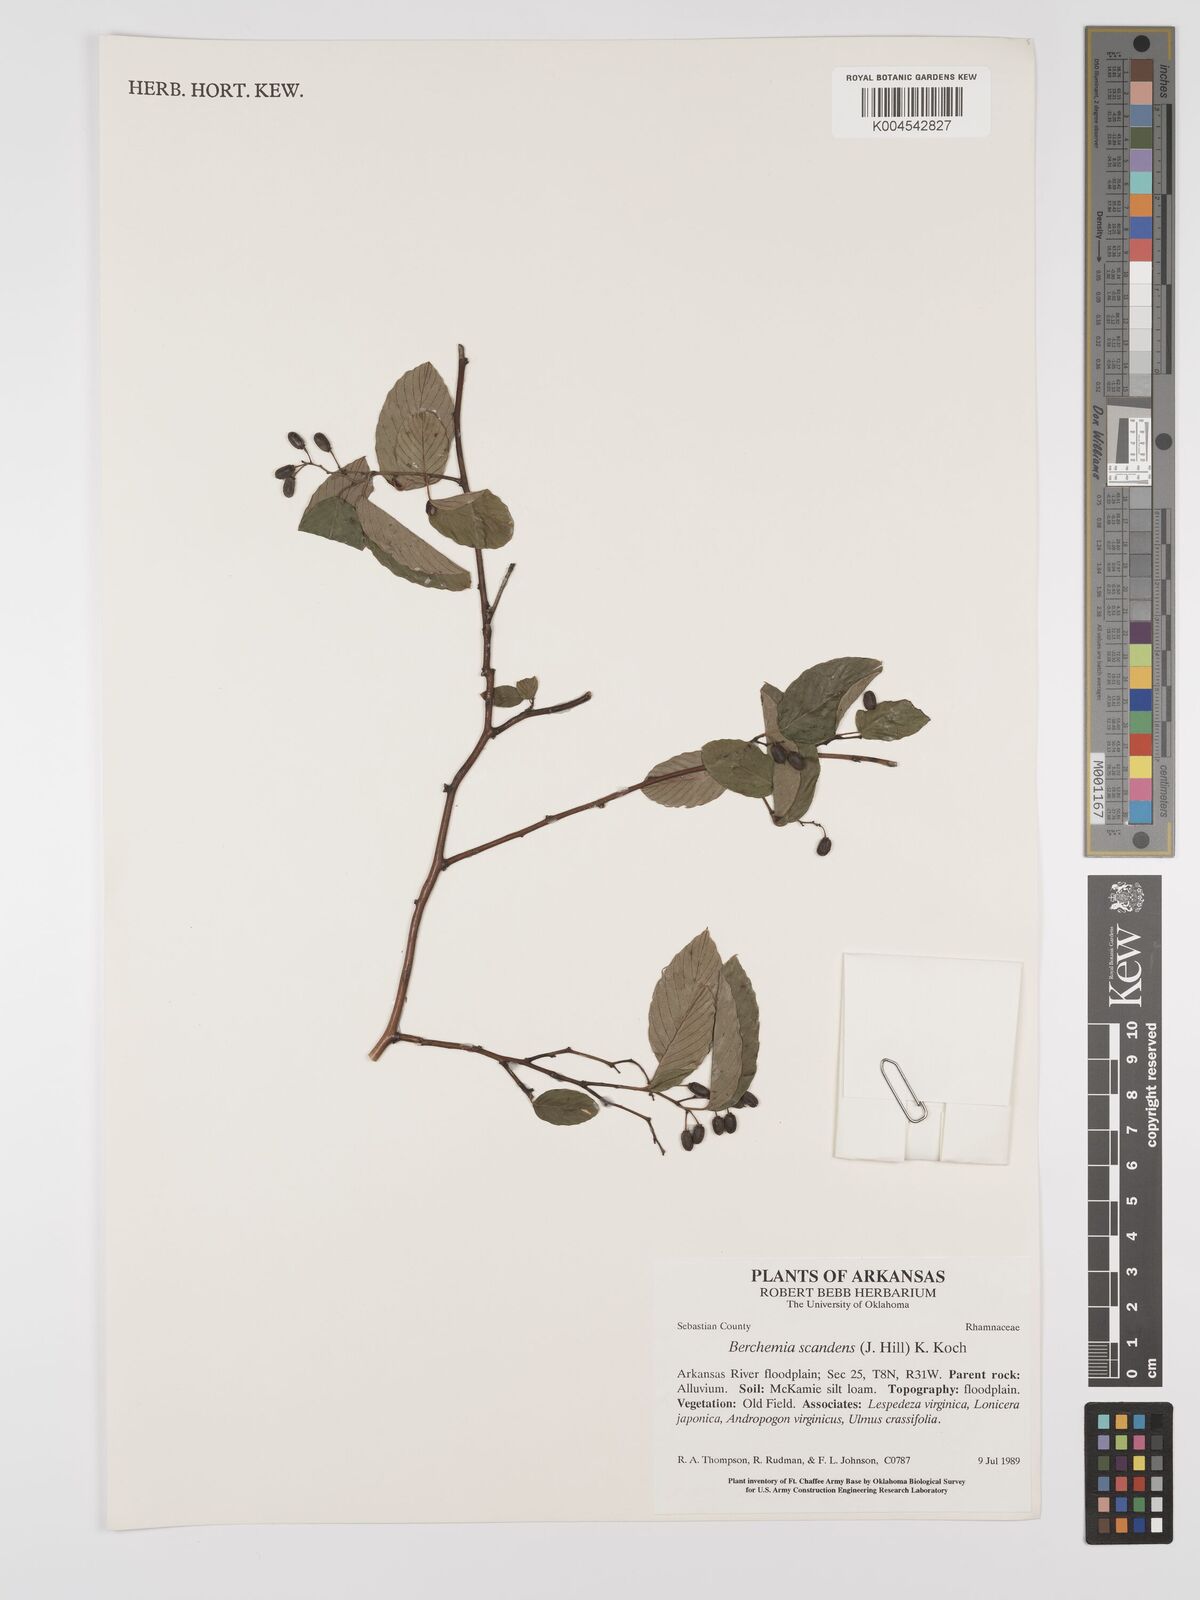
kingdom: Plantae
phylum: Tracheophyta
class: Magnoliopsida
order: Rosales
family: Rhamnaceae
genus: Berchemia
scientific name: Berchemia scandens
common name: Supplejack
